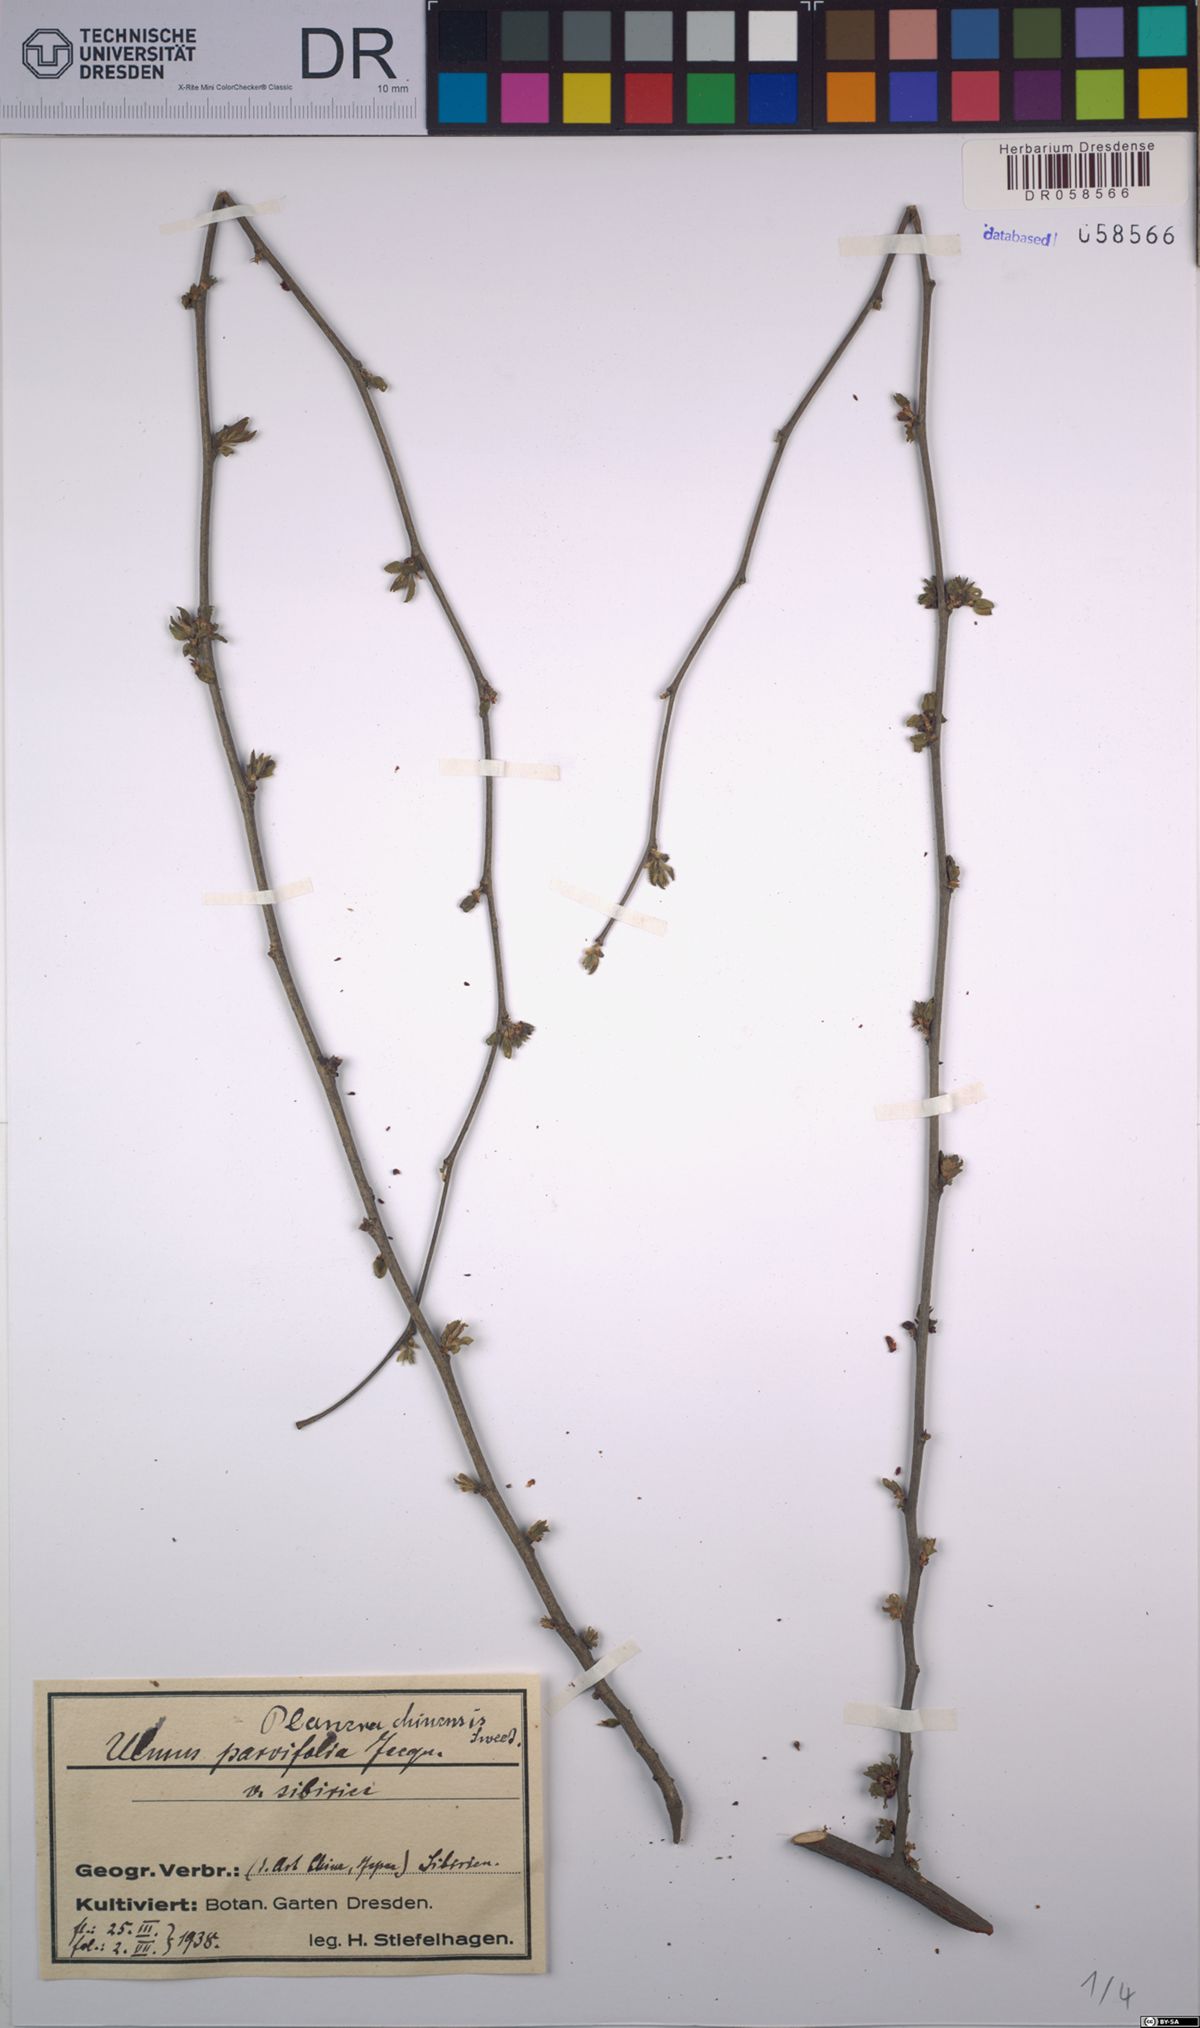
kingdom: Plantae
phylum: Tracheophyta
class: Magnoliopsida
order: Rosales
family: Ulmaceae
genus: Ulmus
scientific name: Ulmus parvifolia
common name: Chinese elm
